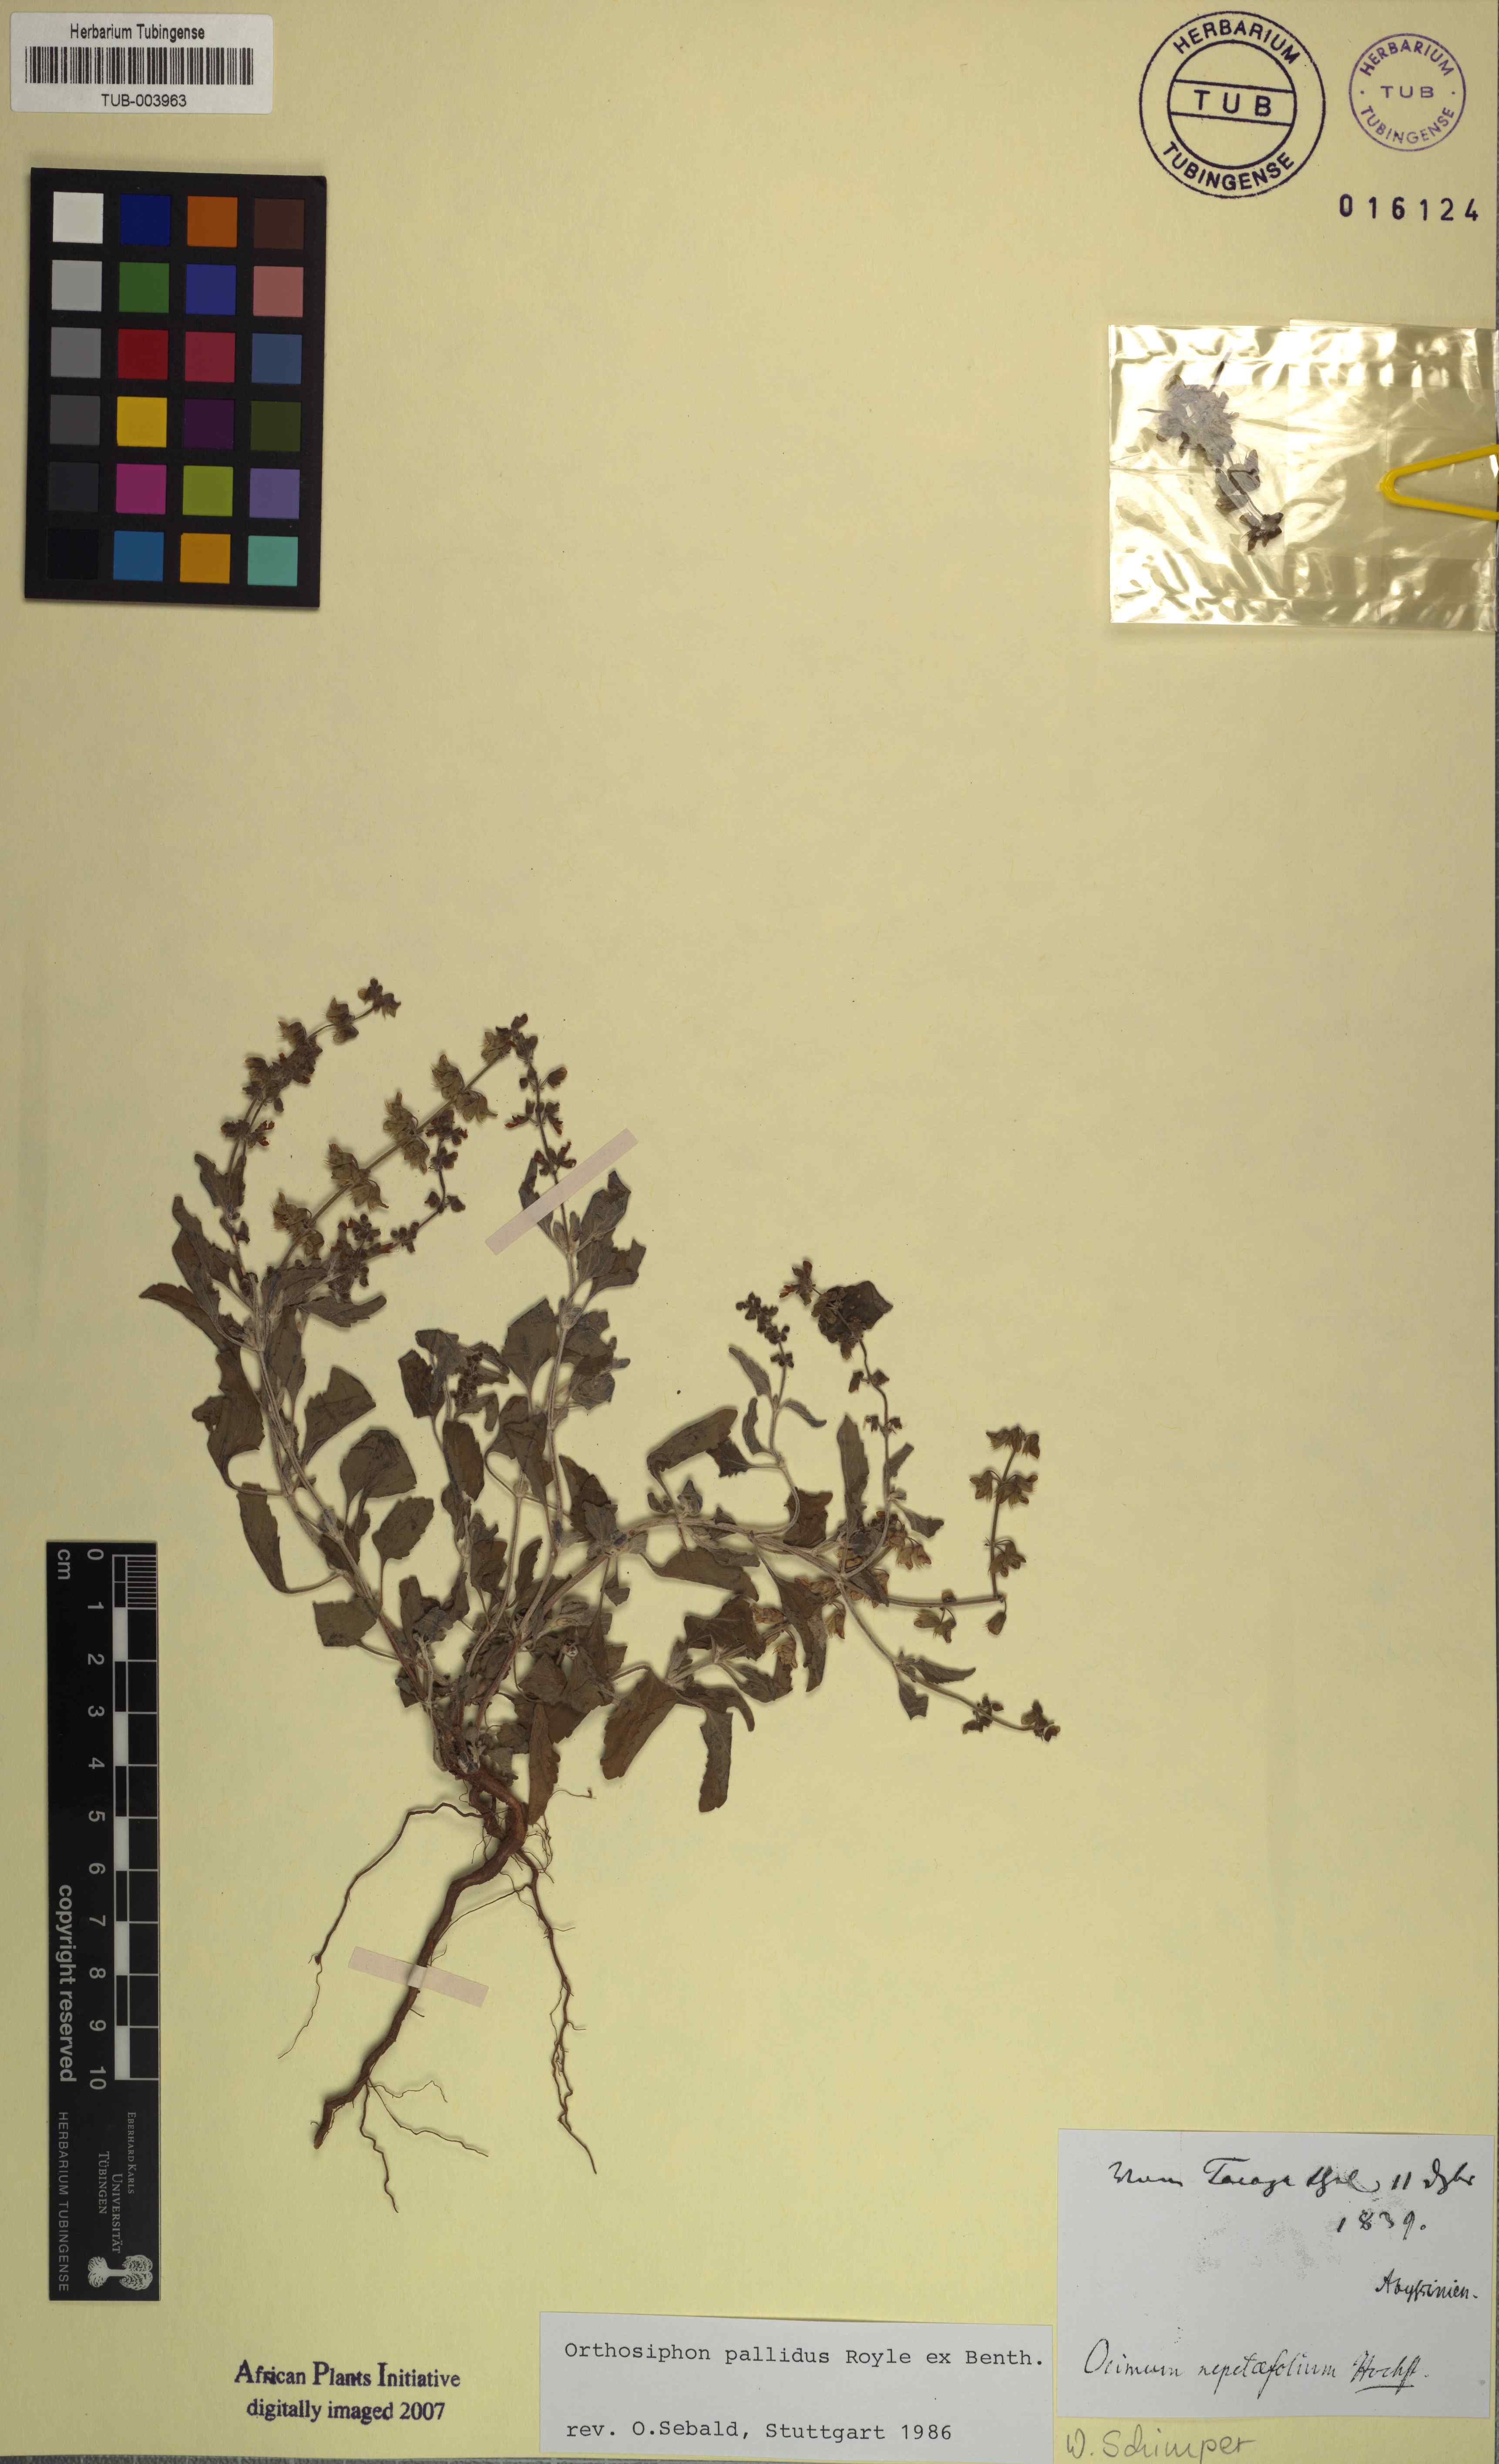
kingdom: Plantae
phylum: Tracheophyta
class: Magnoliopsida
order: Lamiales
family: Lamiaceae
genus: Orthosiphon
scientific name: Orthosiphon pallidus
